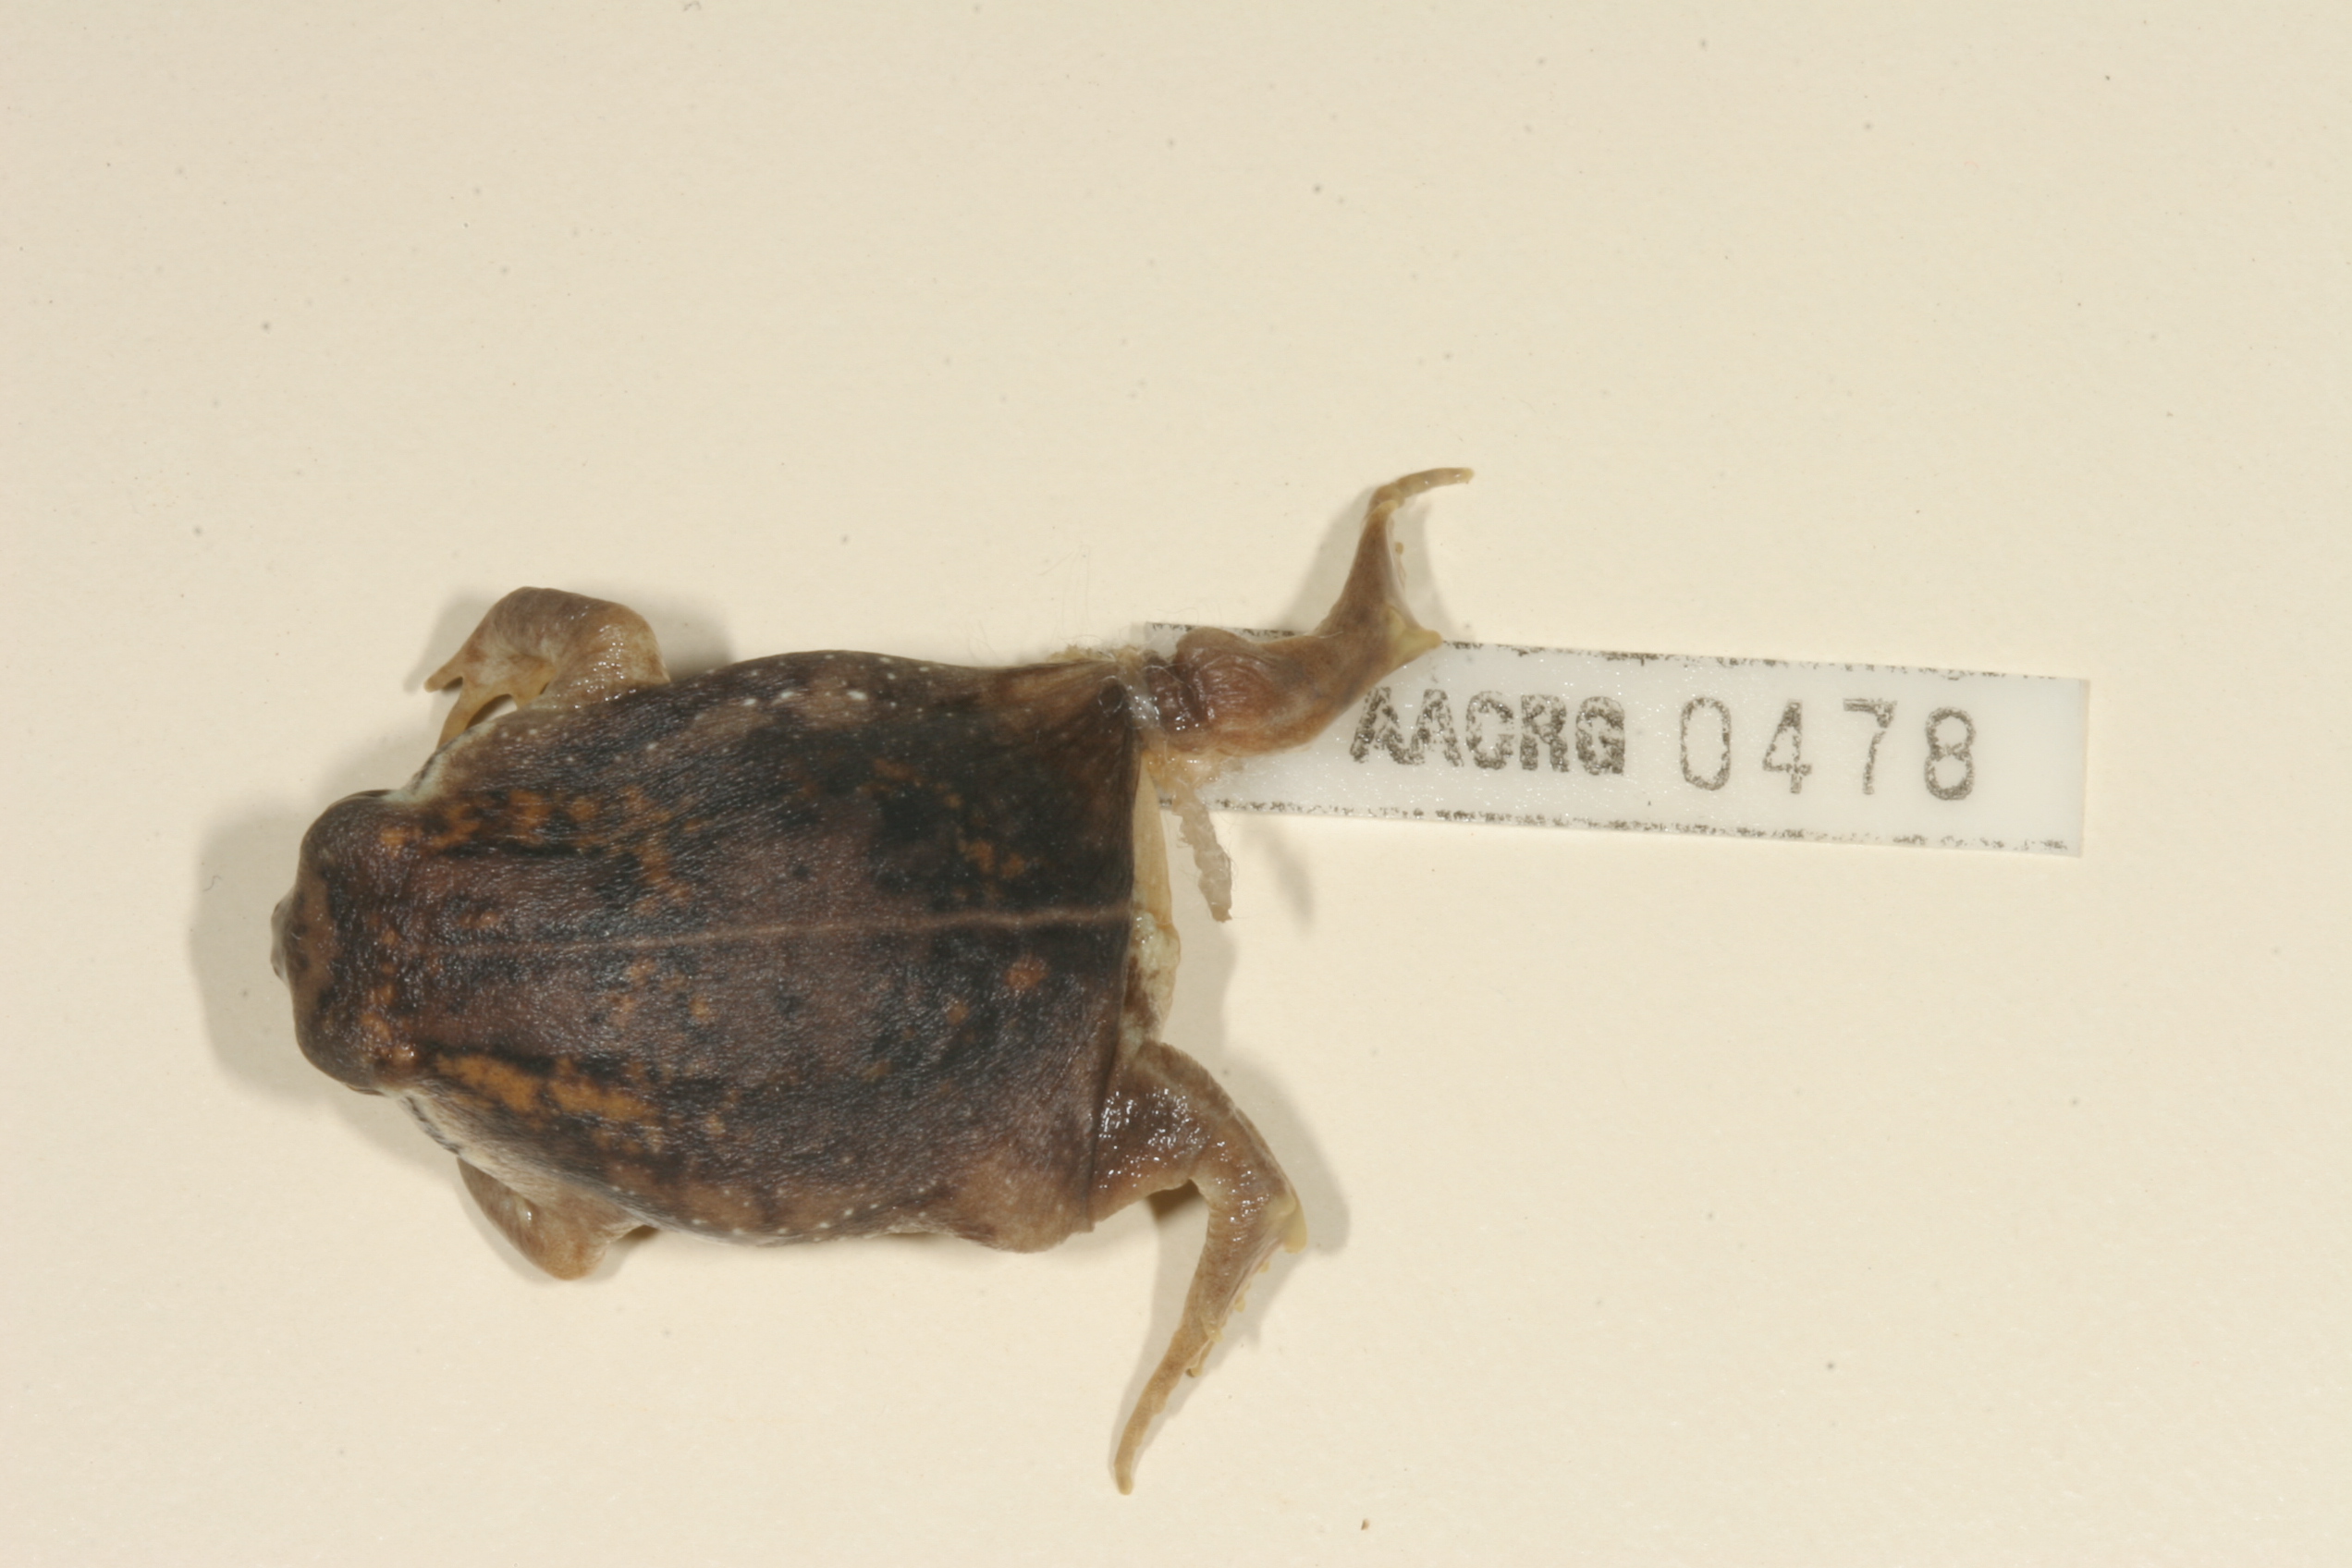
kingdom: Animalia
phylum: Chordata
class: Amphibia
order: Anura
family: Brevicipitidae
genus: Breviceps
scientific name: Breviceps mossambicus
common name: Mozambique rain frog
